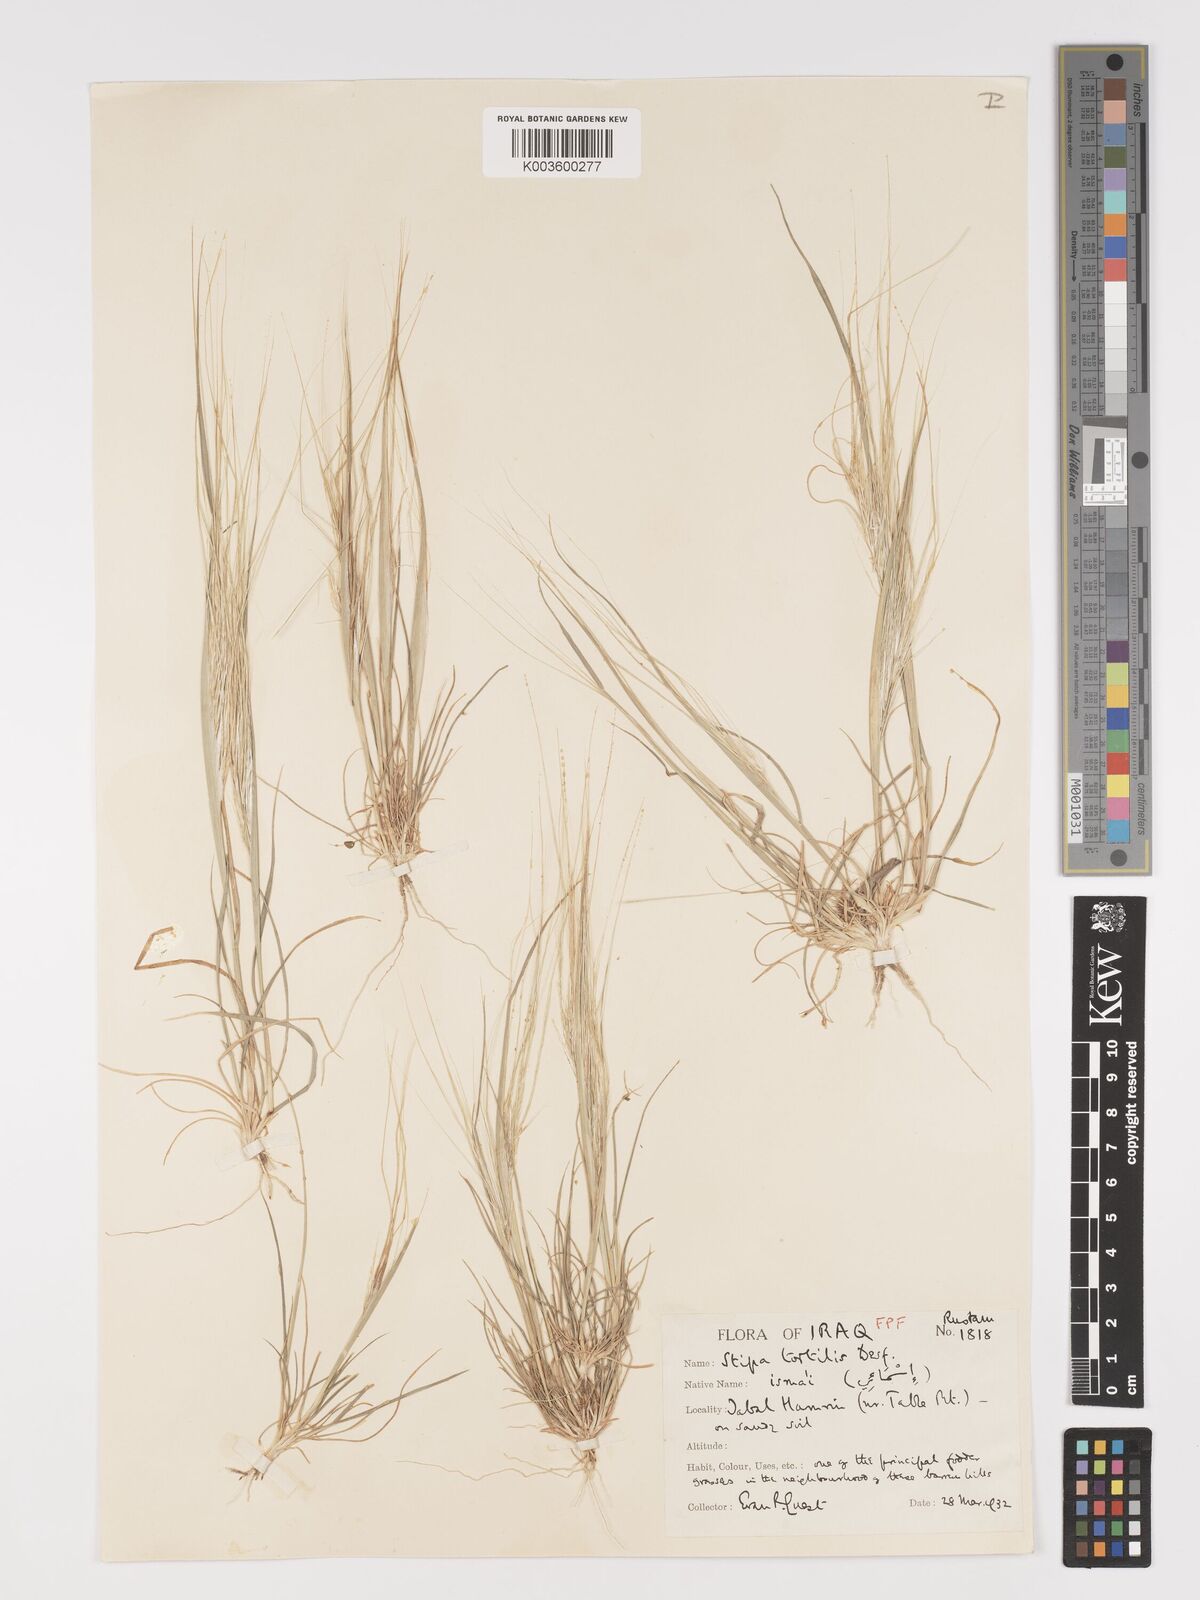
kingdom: Plantae
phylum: Tracheophyta
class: Liliopsida
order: Poales
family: Poaceae
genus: Stipellula
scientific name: Stipellula capensis
